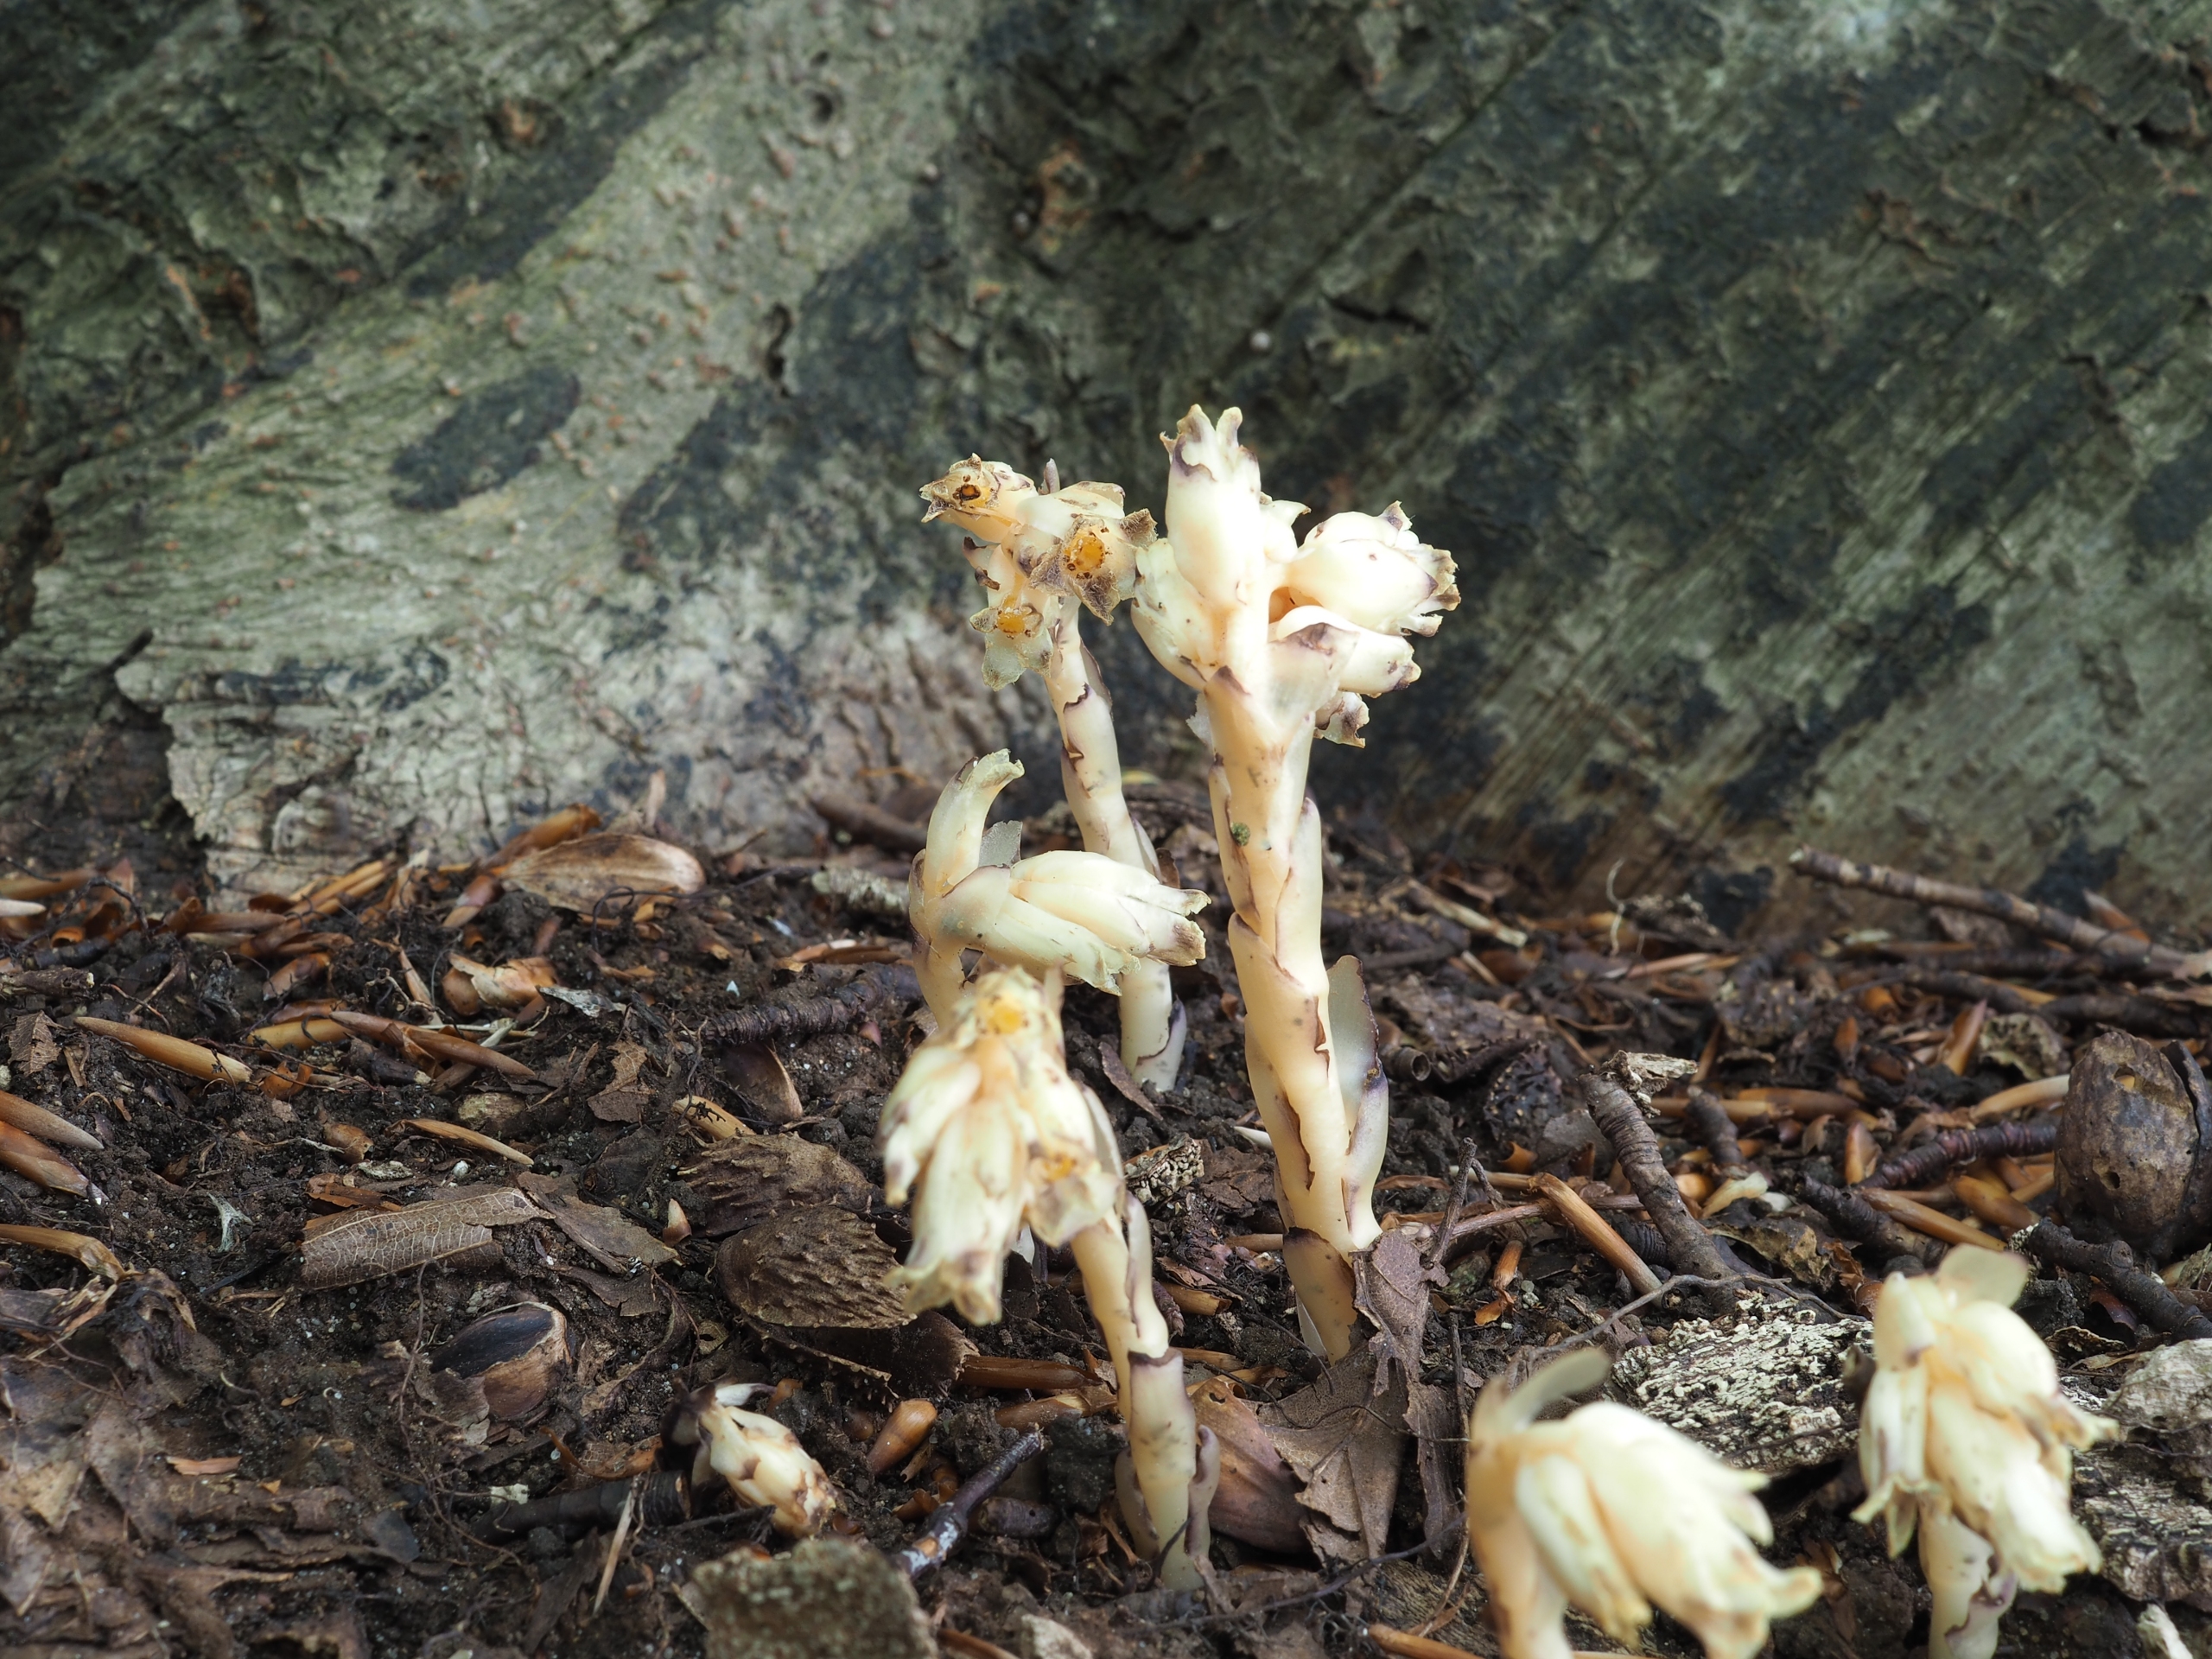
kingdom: Plantae
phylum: Tracheophyta
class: Magnoliopsida
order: Ericales
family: Ericaceae
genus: Hypopitys
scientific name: Hypopitys monotropa
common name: Snylterod
